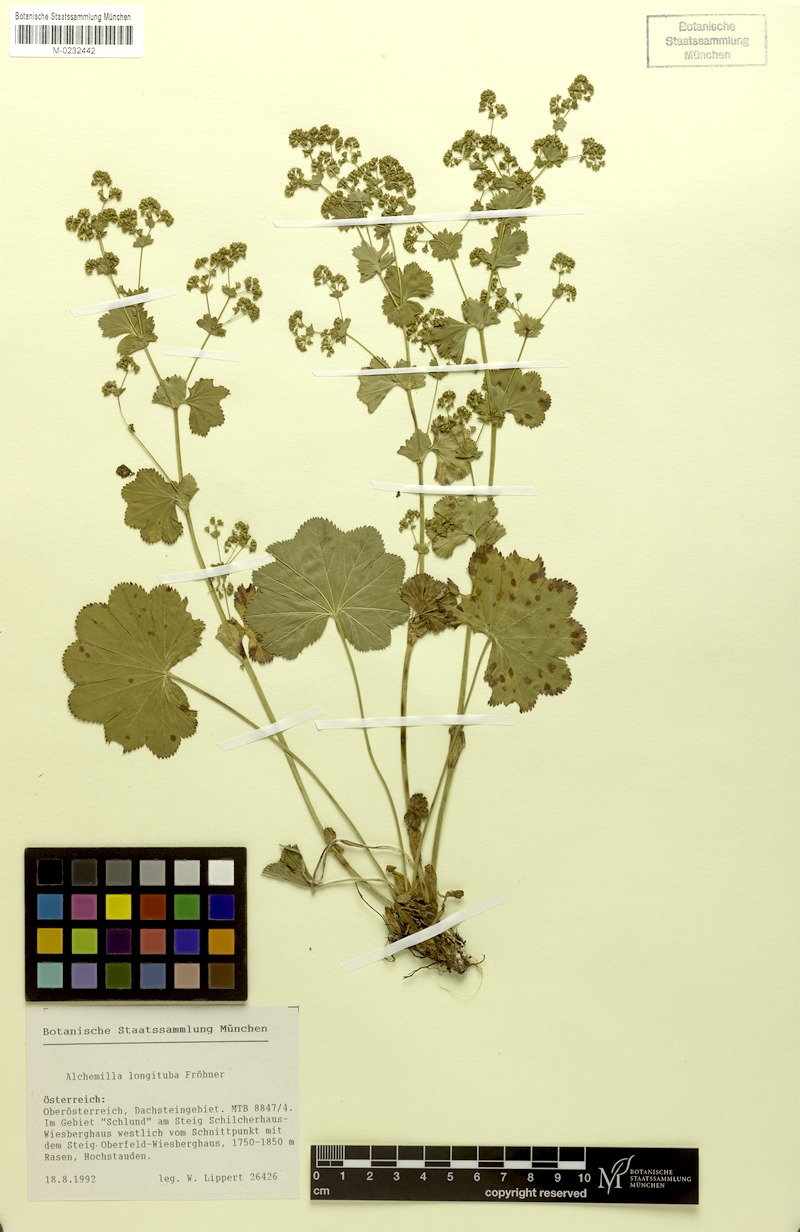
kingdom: Plantae
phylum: Tracheophyta
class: Magnoliopsida
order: Rosales
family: Rosaceae
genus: Alchemilla
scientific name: Alchemilla longituba
